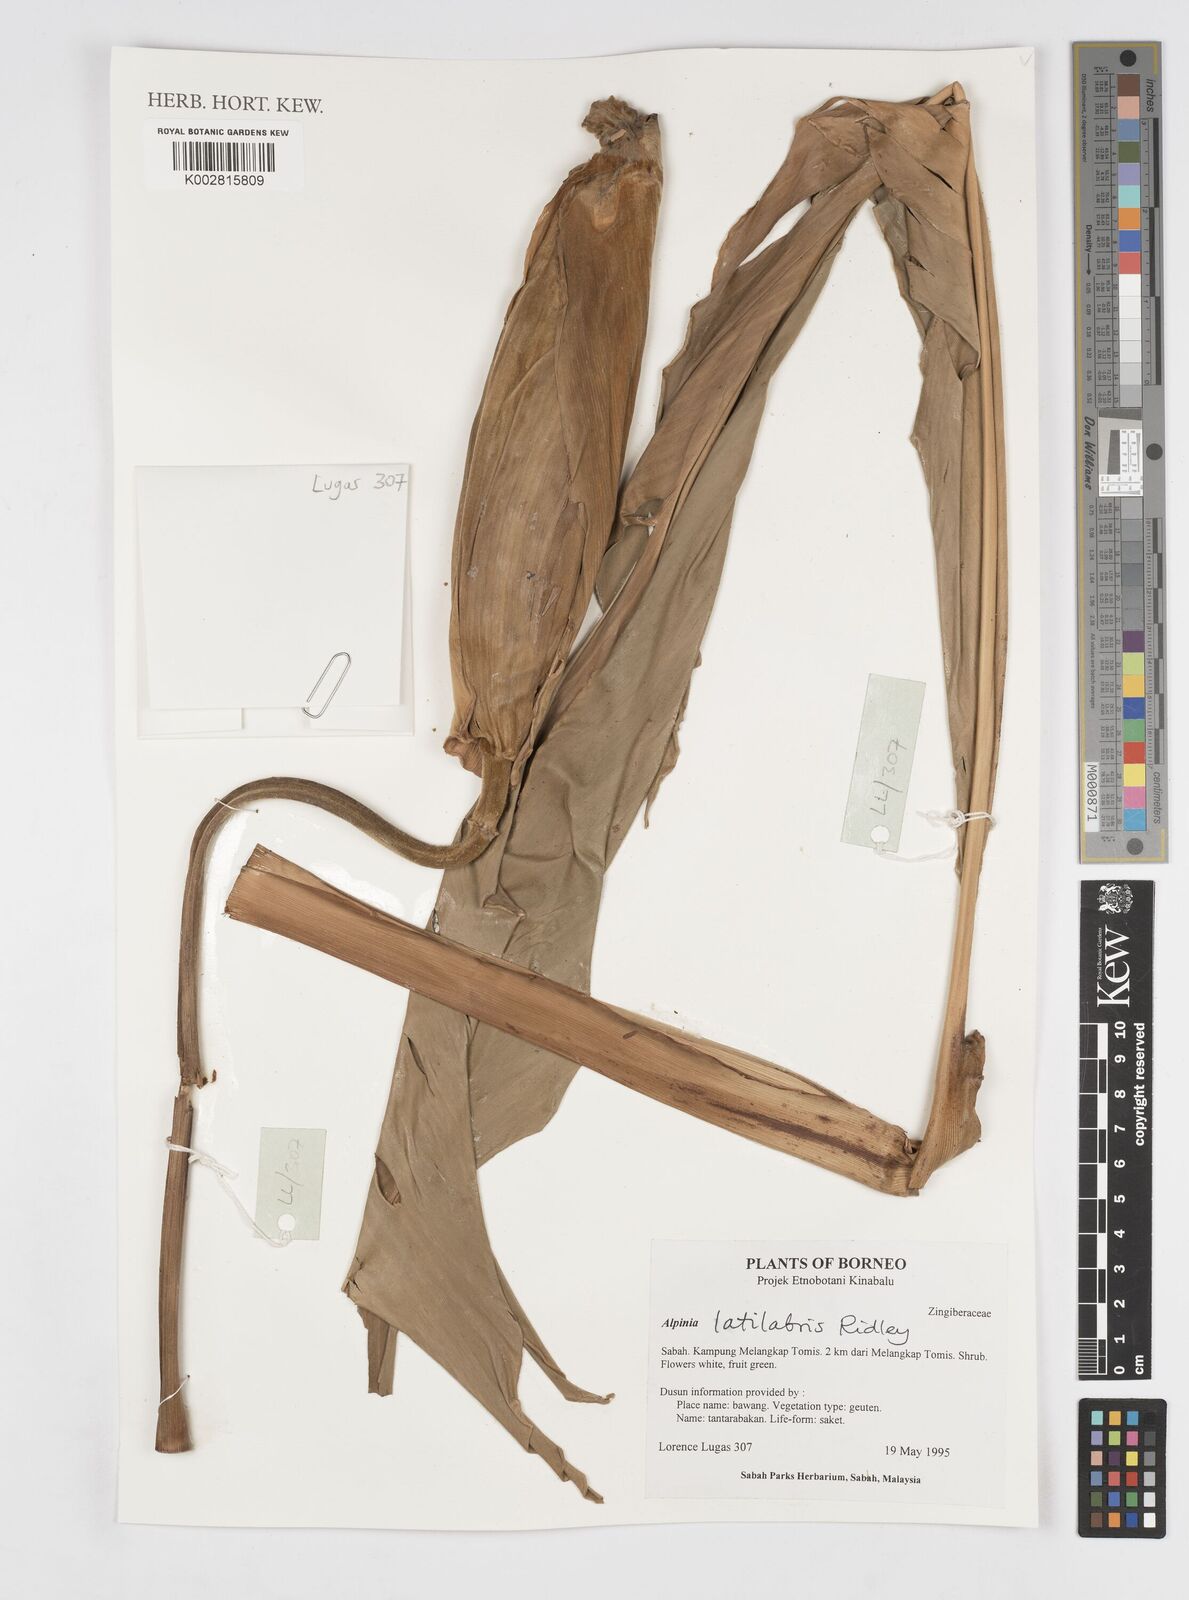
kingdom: Plantae
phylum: Tracheophyta
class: Liliopsida
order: Zingiberales
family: Zingiberaceae
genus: Alpinia
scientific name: Alpinia latilabris
